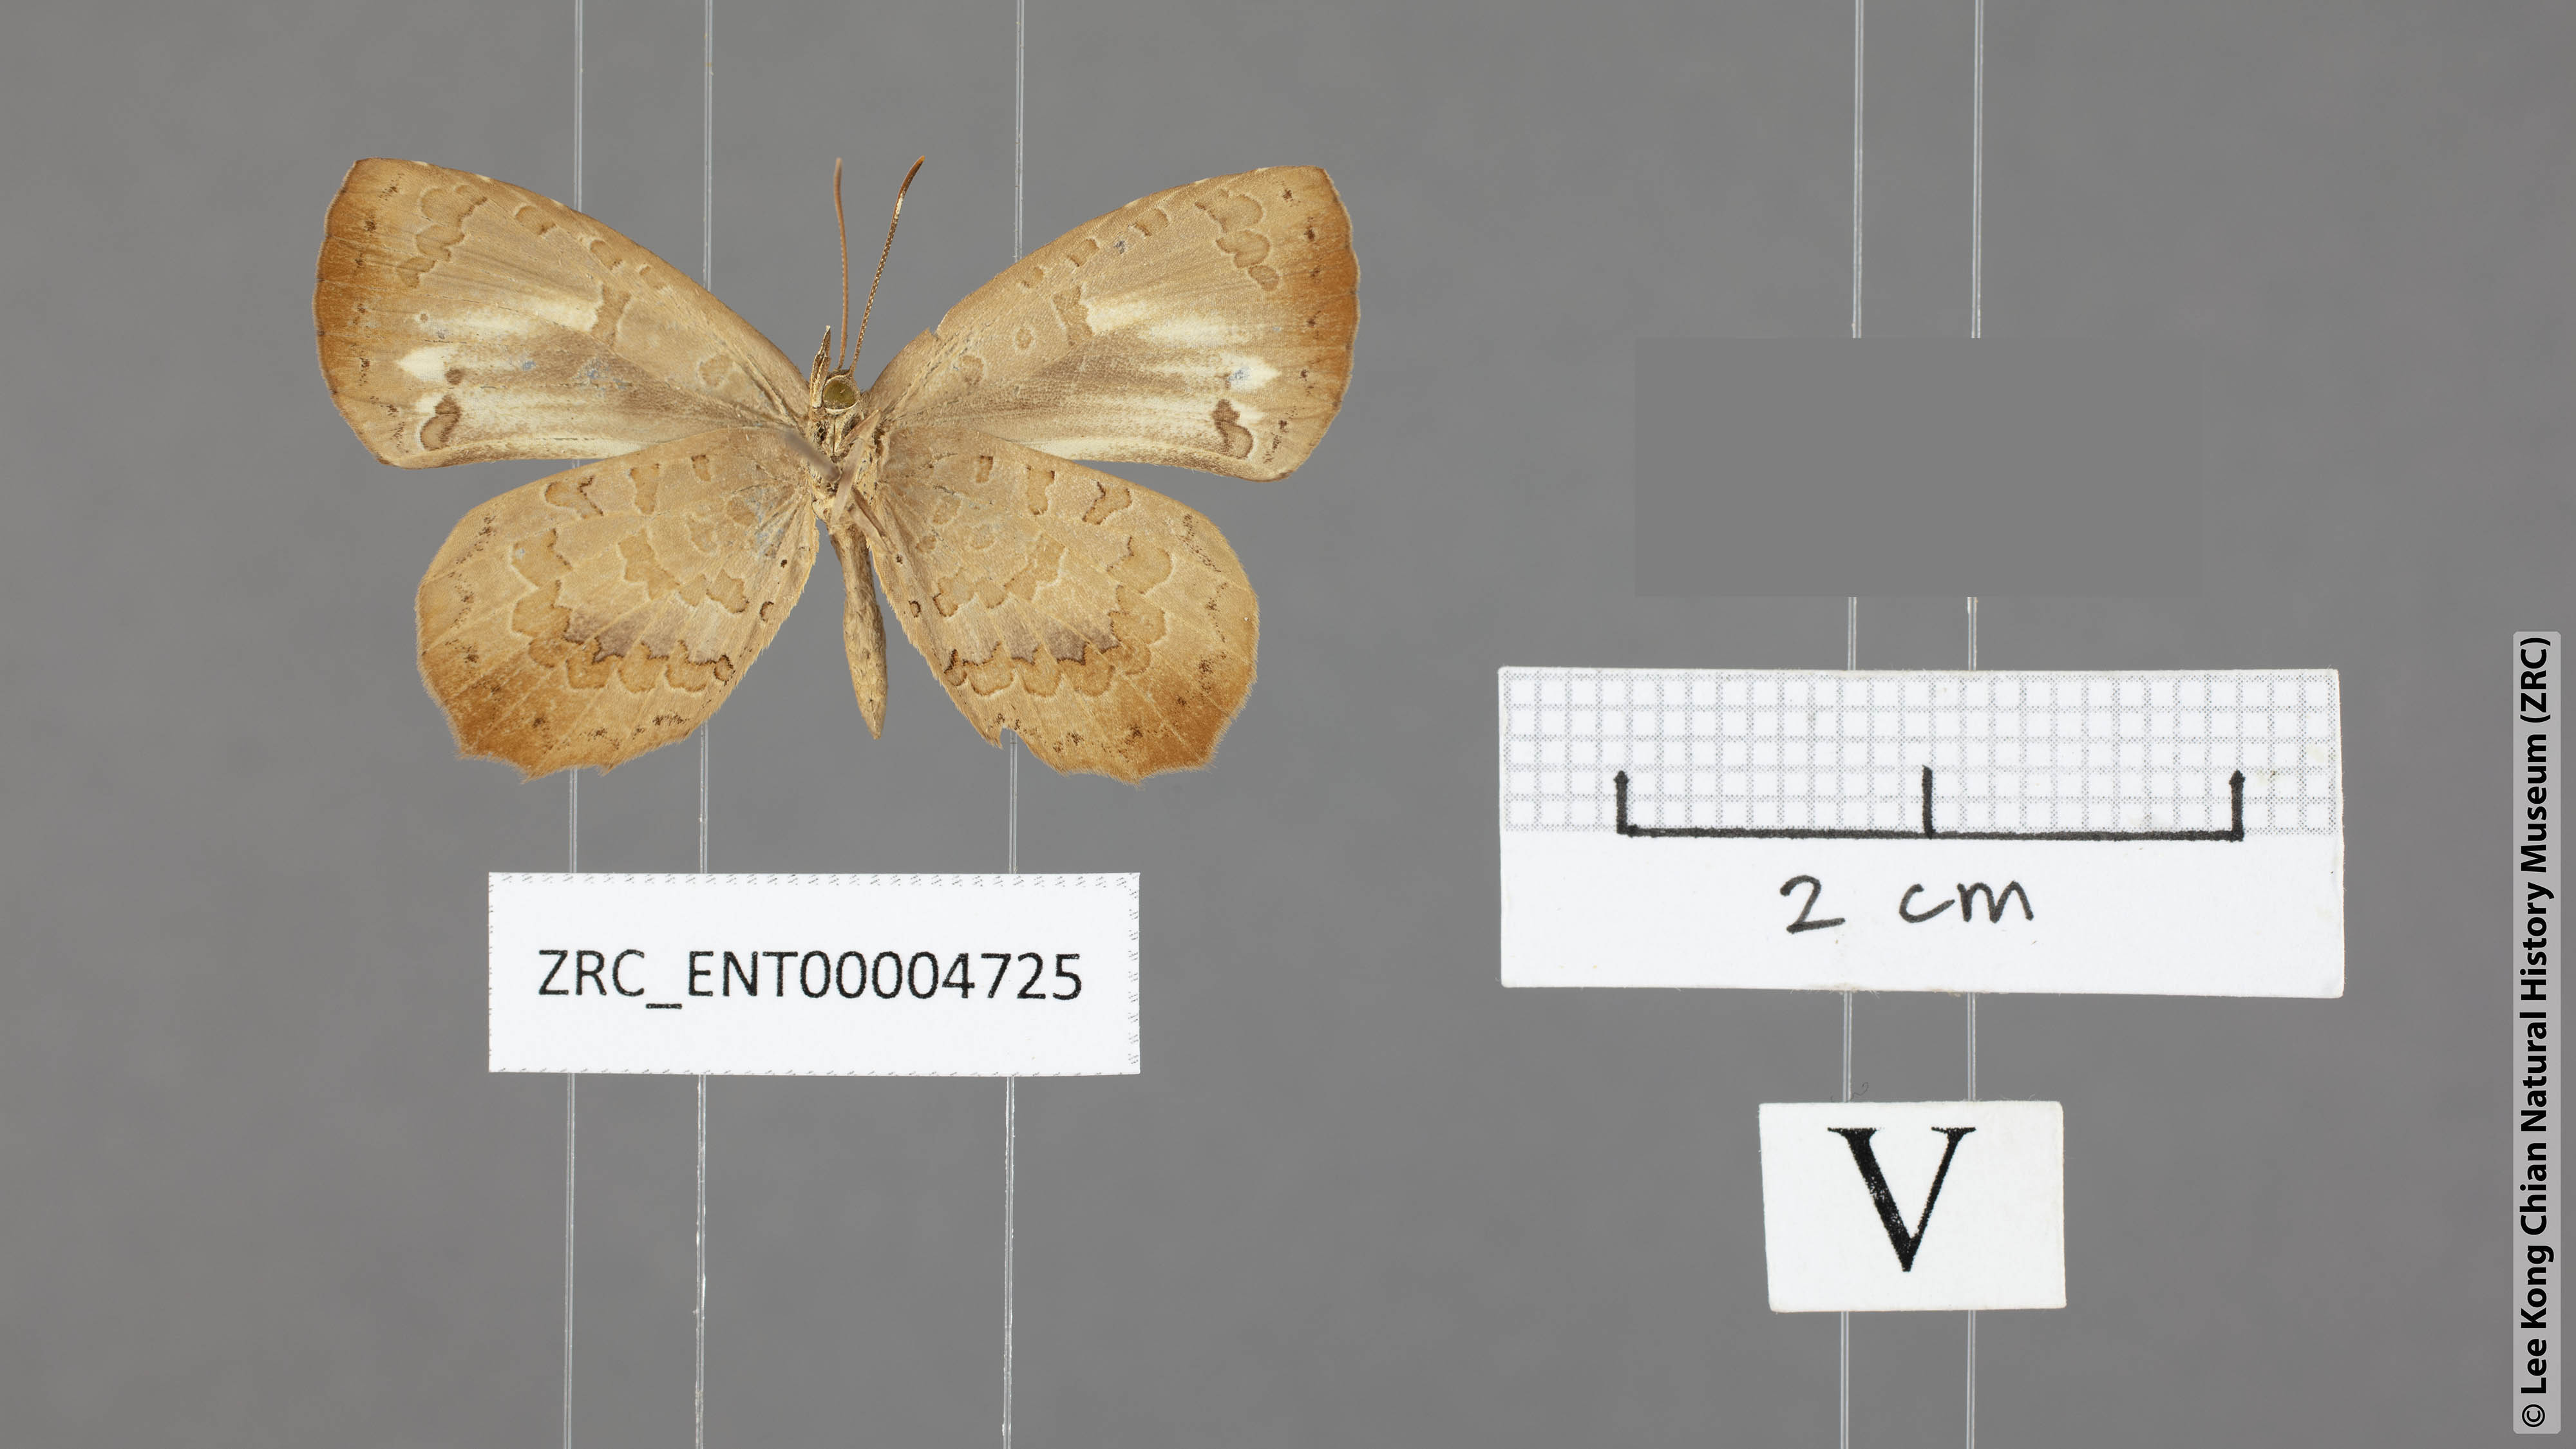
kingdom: Animalia
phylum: Arthropoda
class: Insecta
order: Lepidoptera
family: Lycaenidae
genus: Miletus
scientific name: Miletus chinensis
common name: Common brownie
